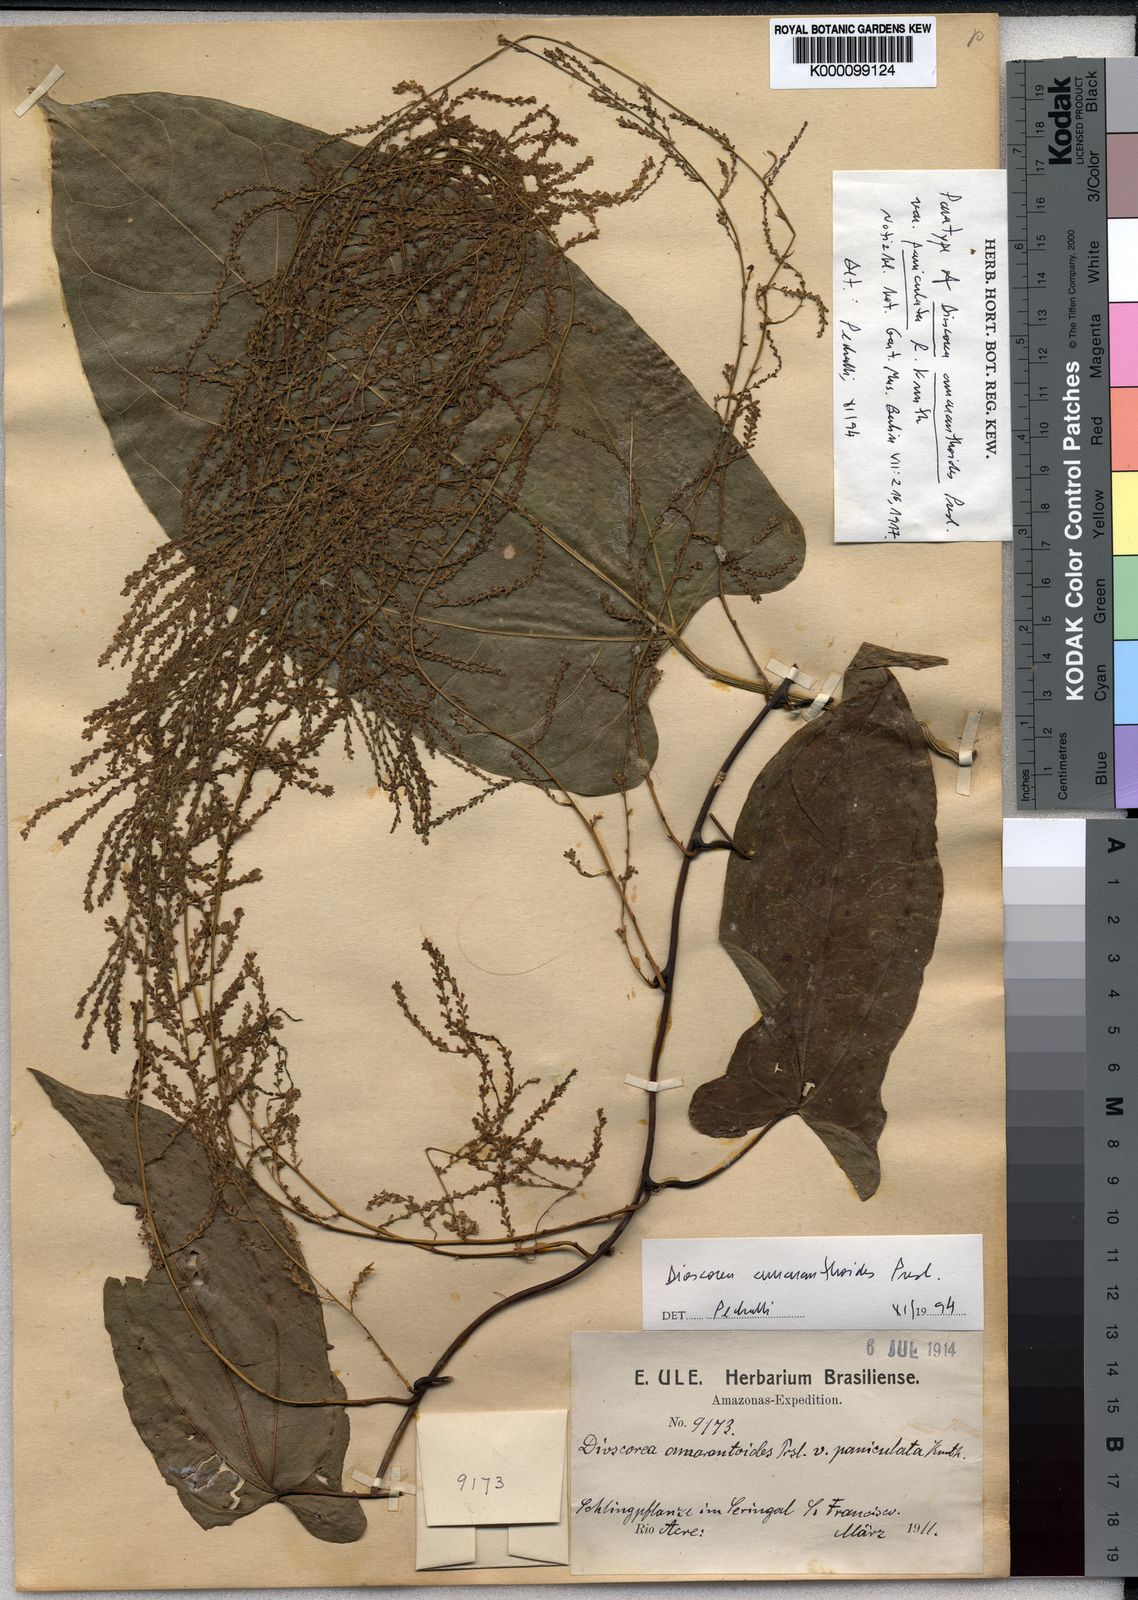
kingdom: Plantae
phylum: Tracheophyta
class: Liliopsida
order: Dioscoreales
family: Dioscoreaceae
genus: Dioscorea
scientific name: Dioscorea amaranthoides
